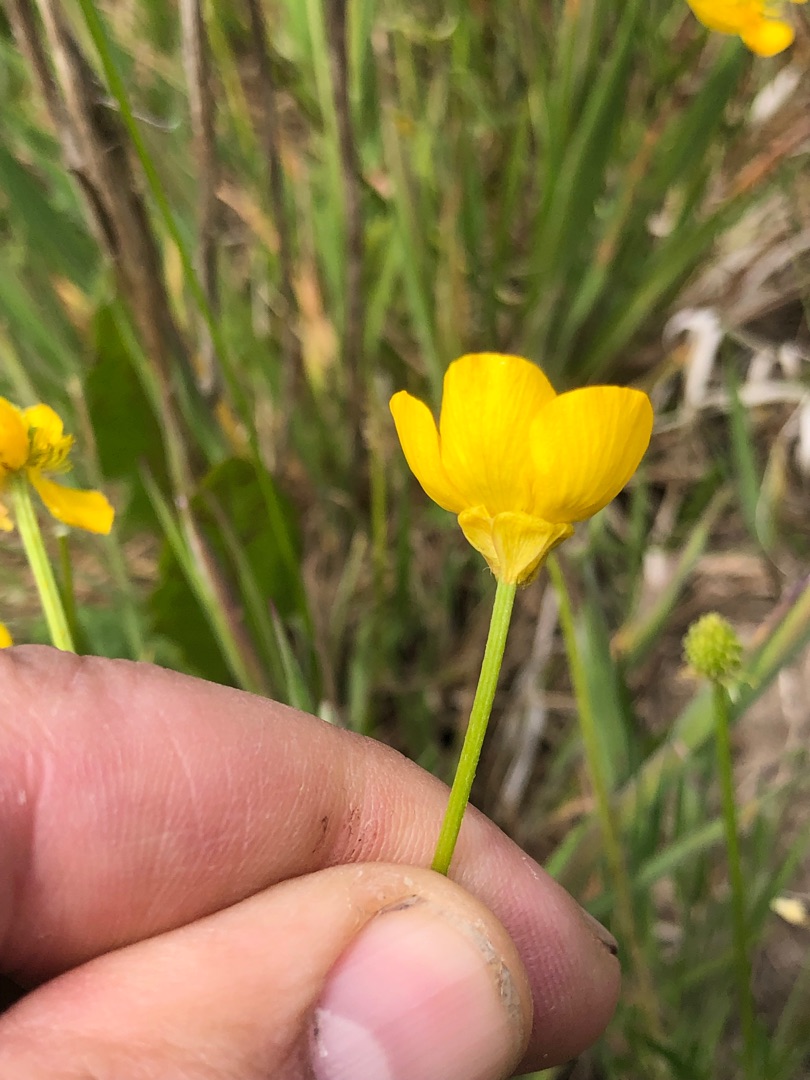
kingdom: Plantae
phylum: Tracheophyta
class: Magnoliopsida
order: Ranunculales
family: Ranunculaceae
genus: Ranunculus
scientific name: Ranunculus bulbosus
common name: Knold-ranunkel
